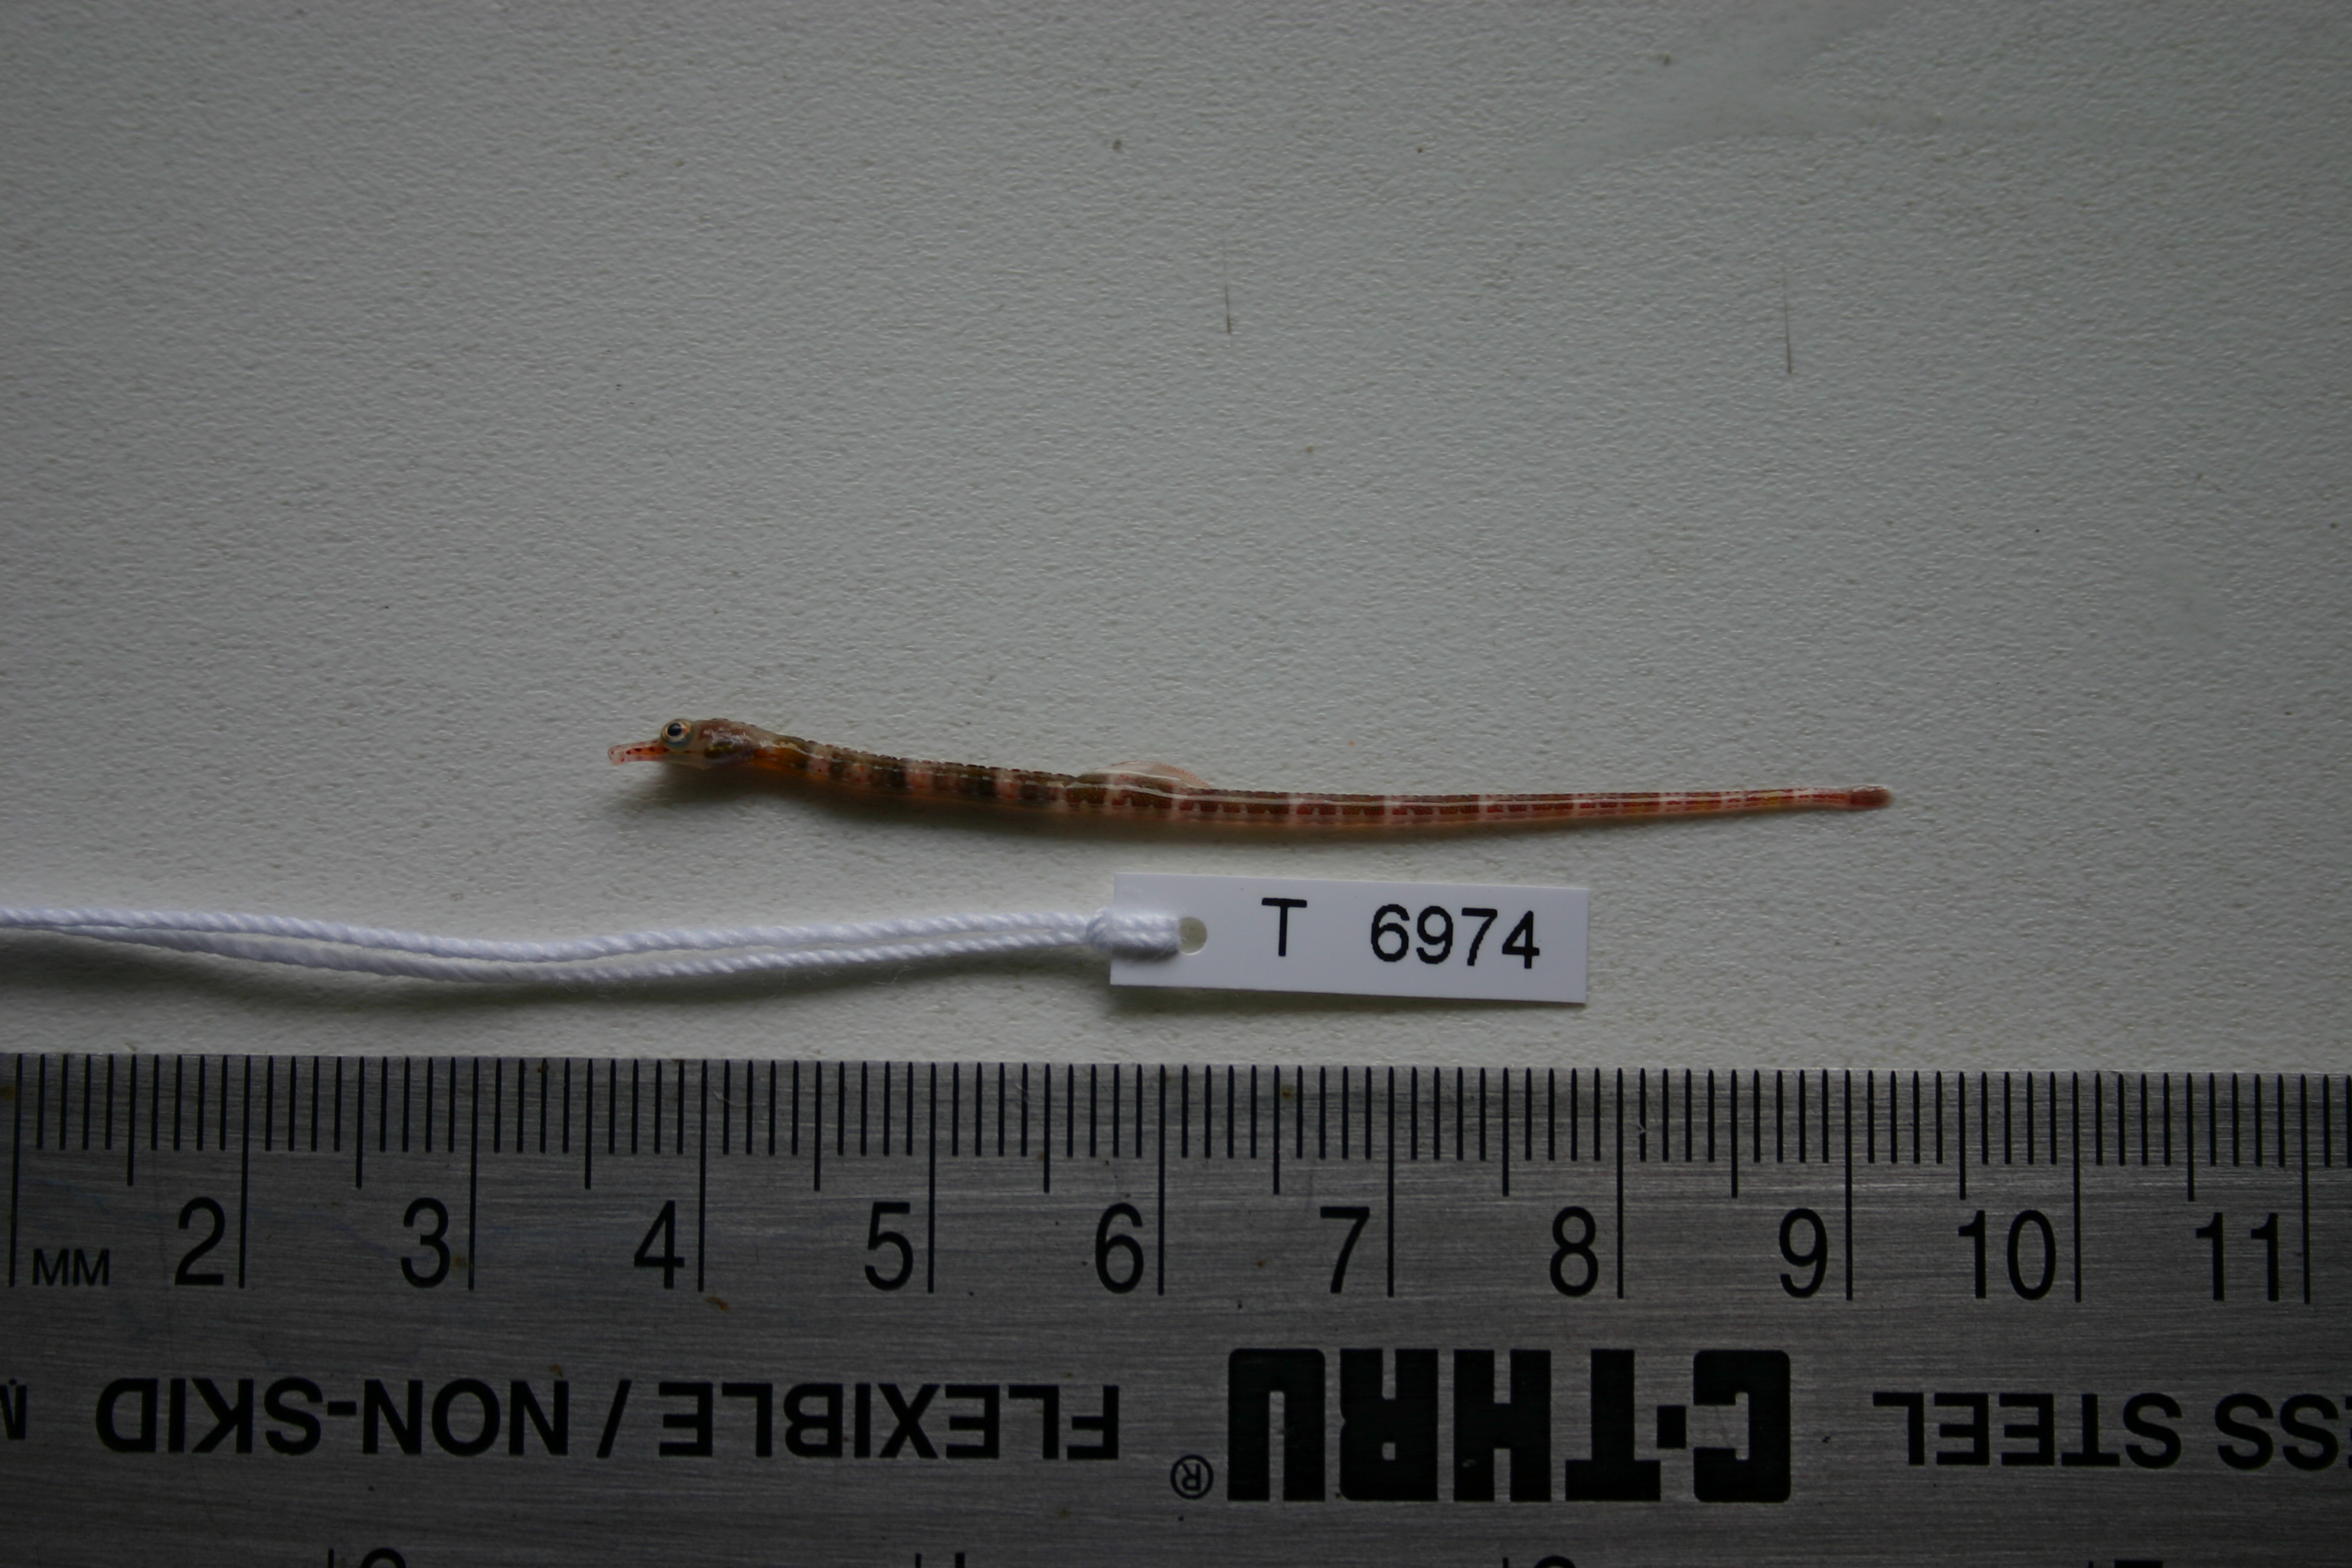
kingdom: Animalia
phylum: Chordata
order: Syngnathiformes
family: Syngnathidae
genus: Corythoichthys
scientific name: Corythoichthys amplexus
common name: Brown-banded pipefish
